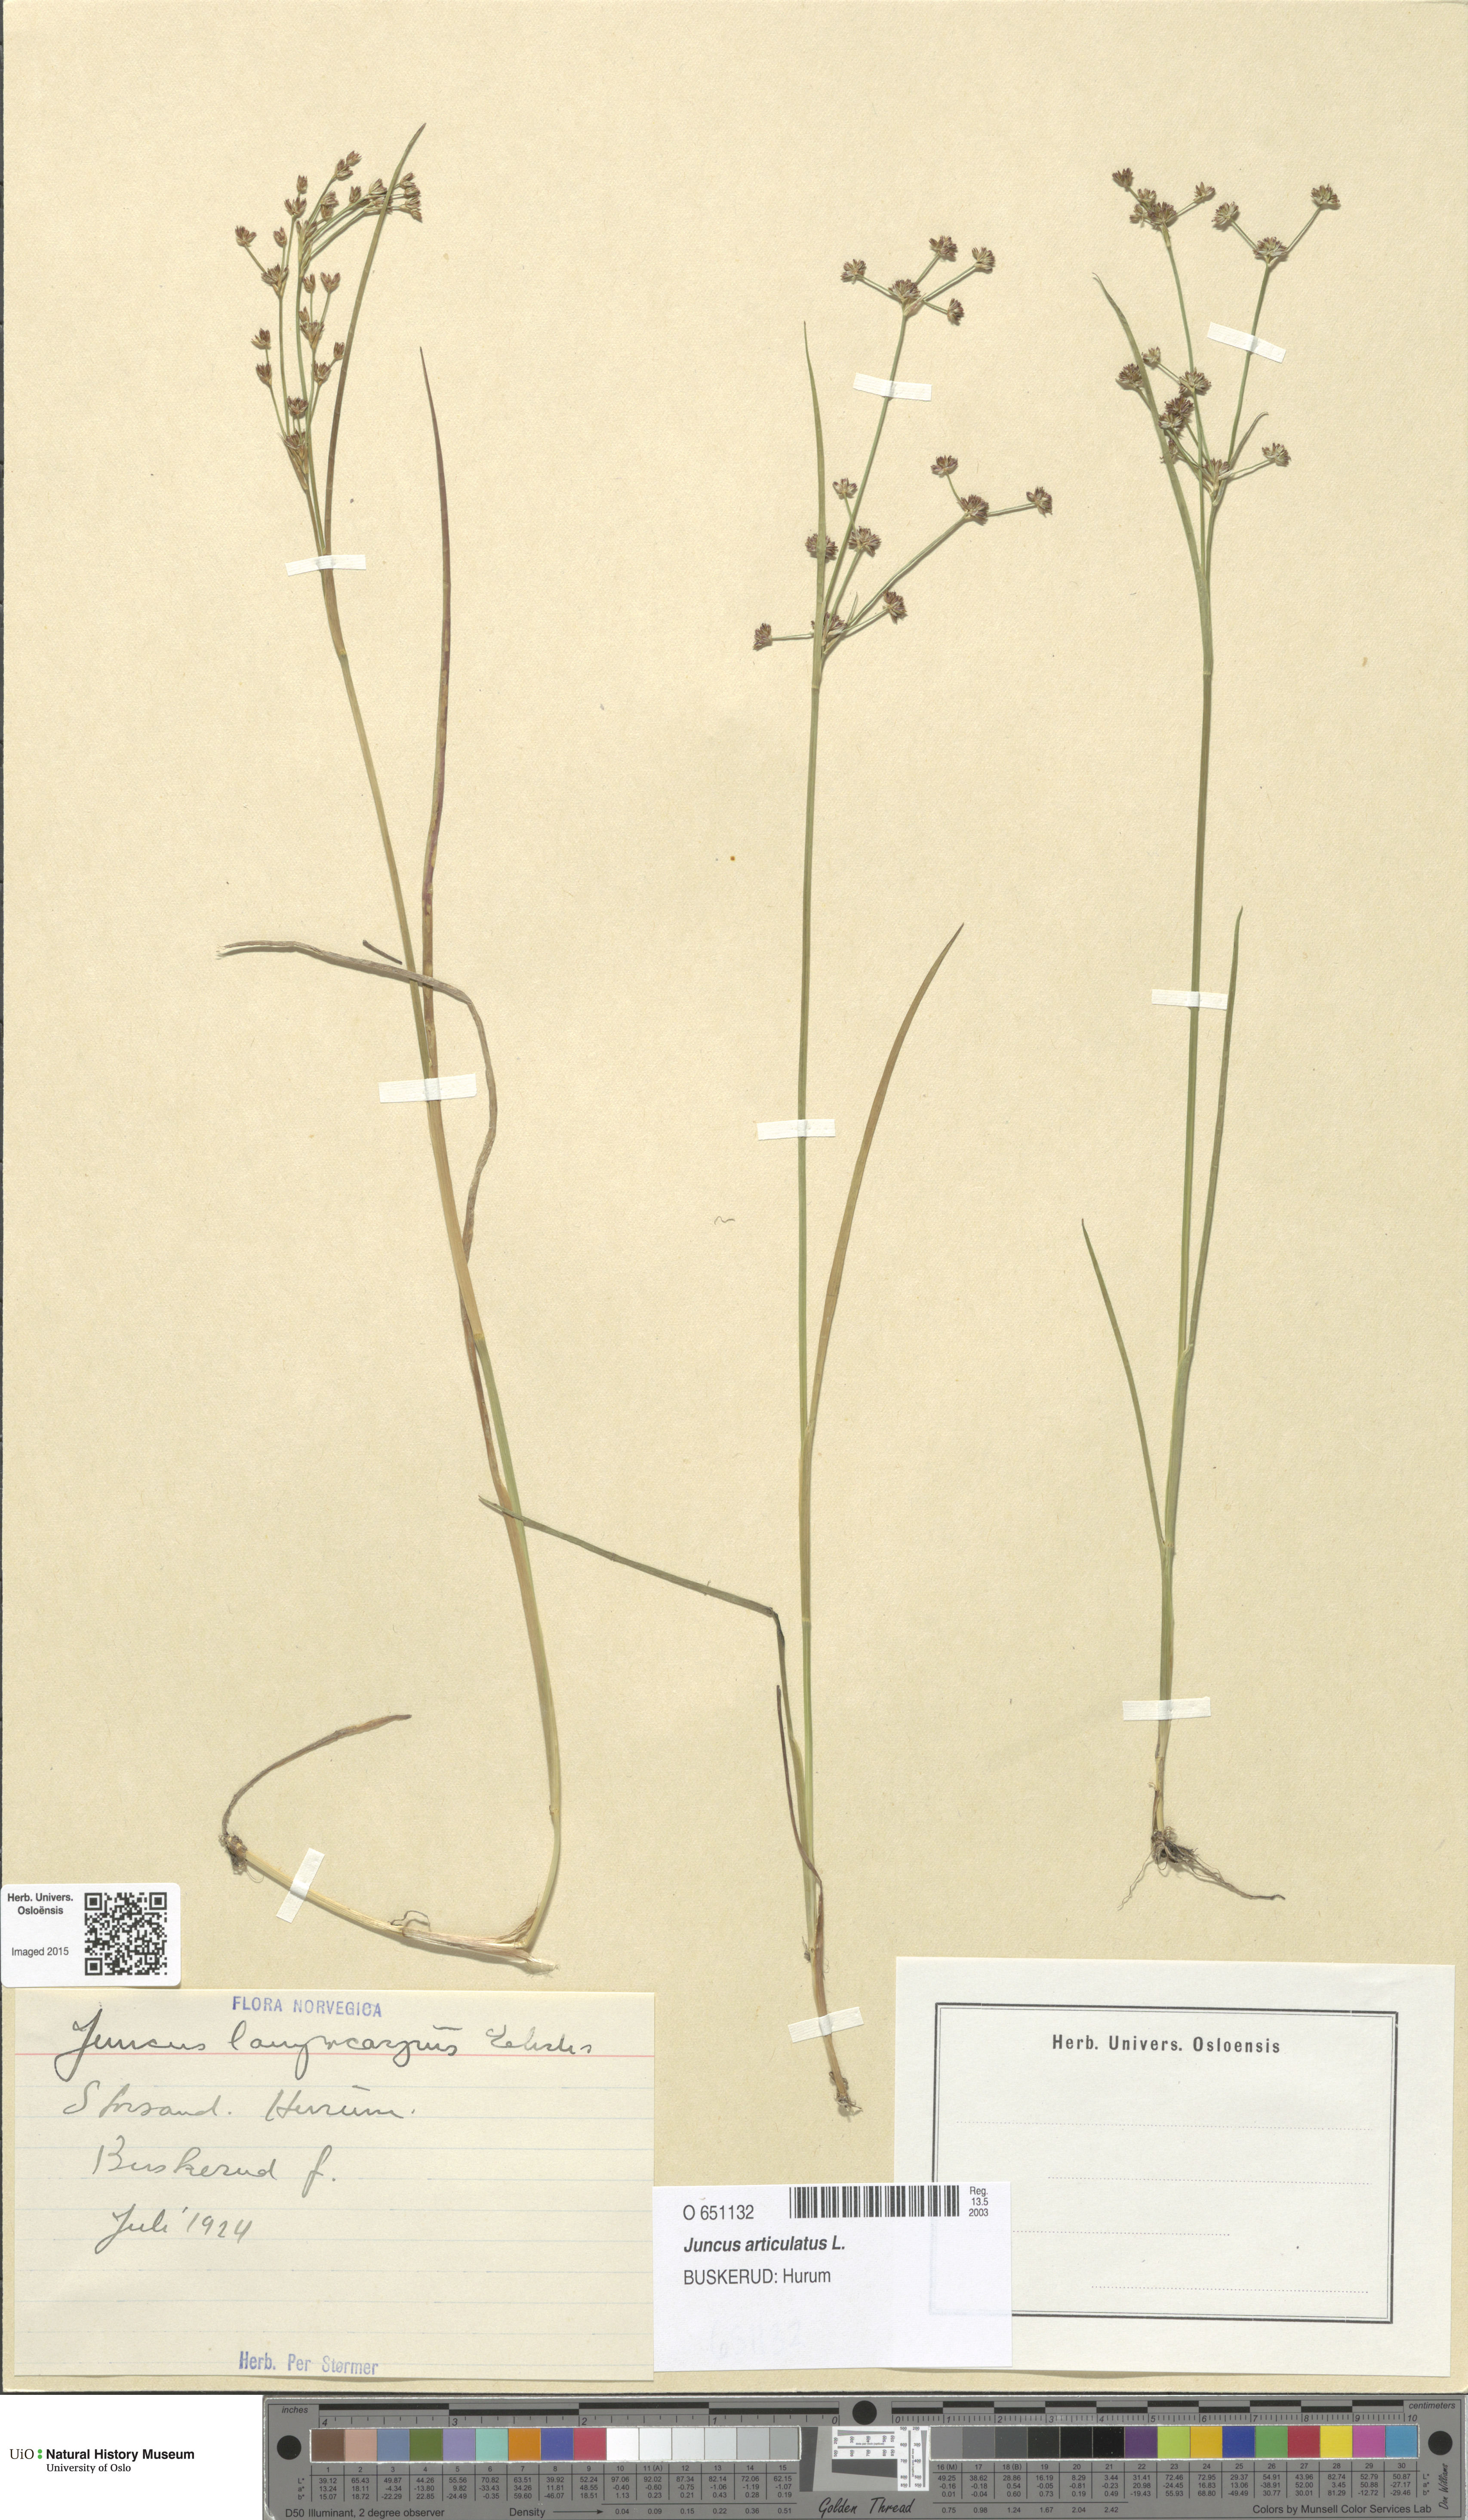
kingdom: Plantae
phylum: Tracheophyta
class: Liliopsida
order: Poales
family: Juncaceae
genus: Juncus
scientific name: Juncus articulatus
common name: Jointed rush
